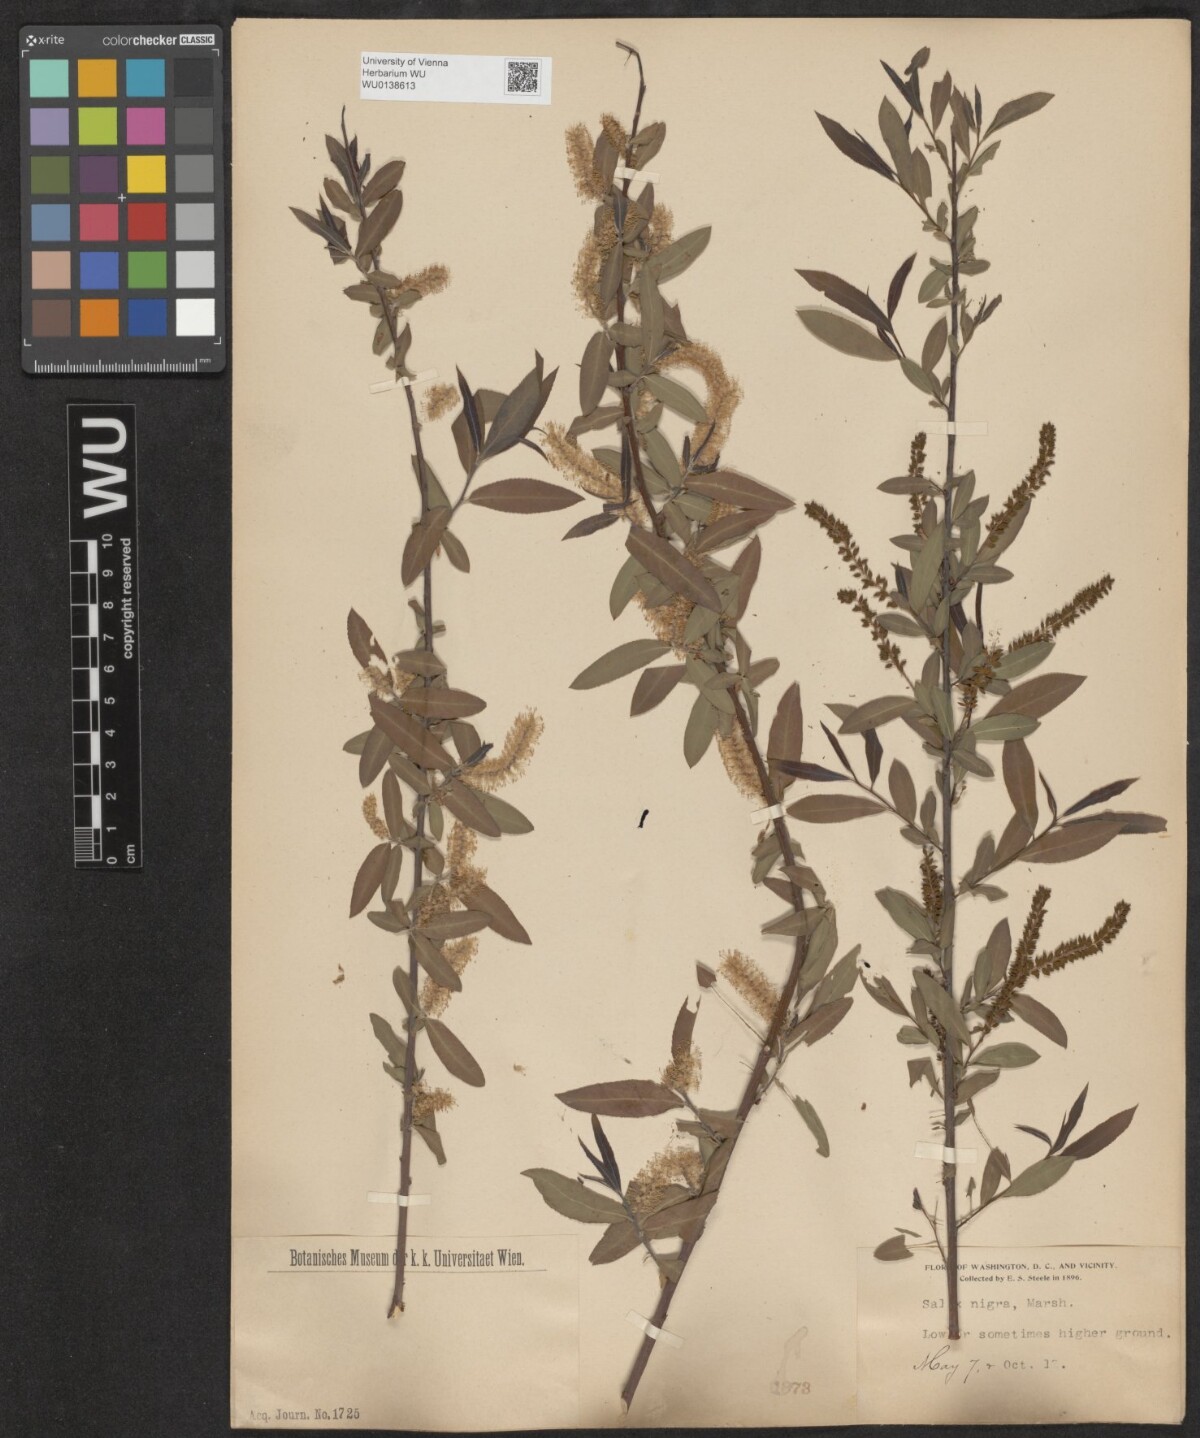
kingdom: Plantae
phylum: Tracheophyta
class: Magnoliopsida
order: Malpighiales
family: Salicaceae
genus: Salix
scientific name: Salix nigra
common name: Black willow
